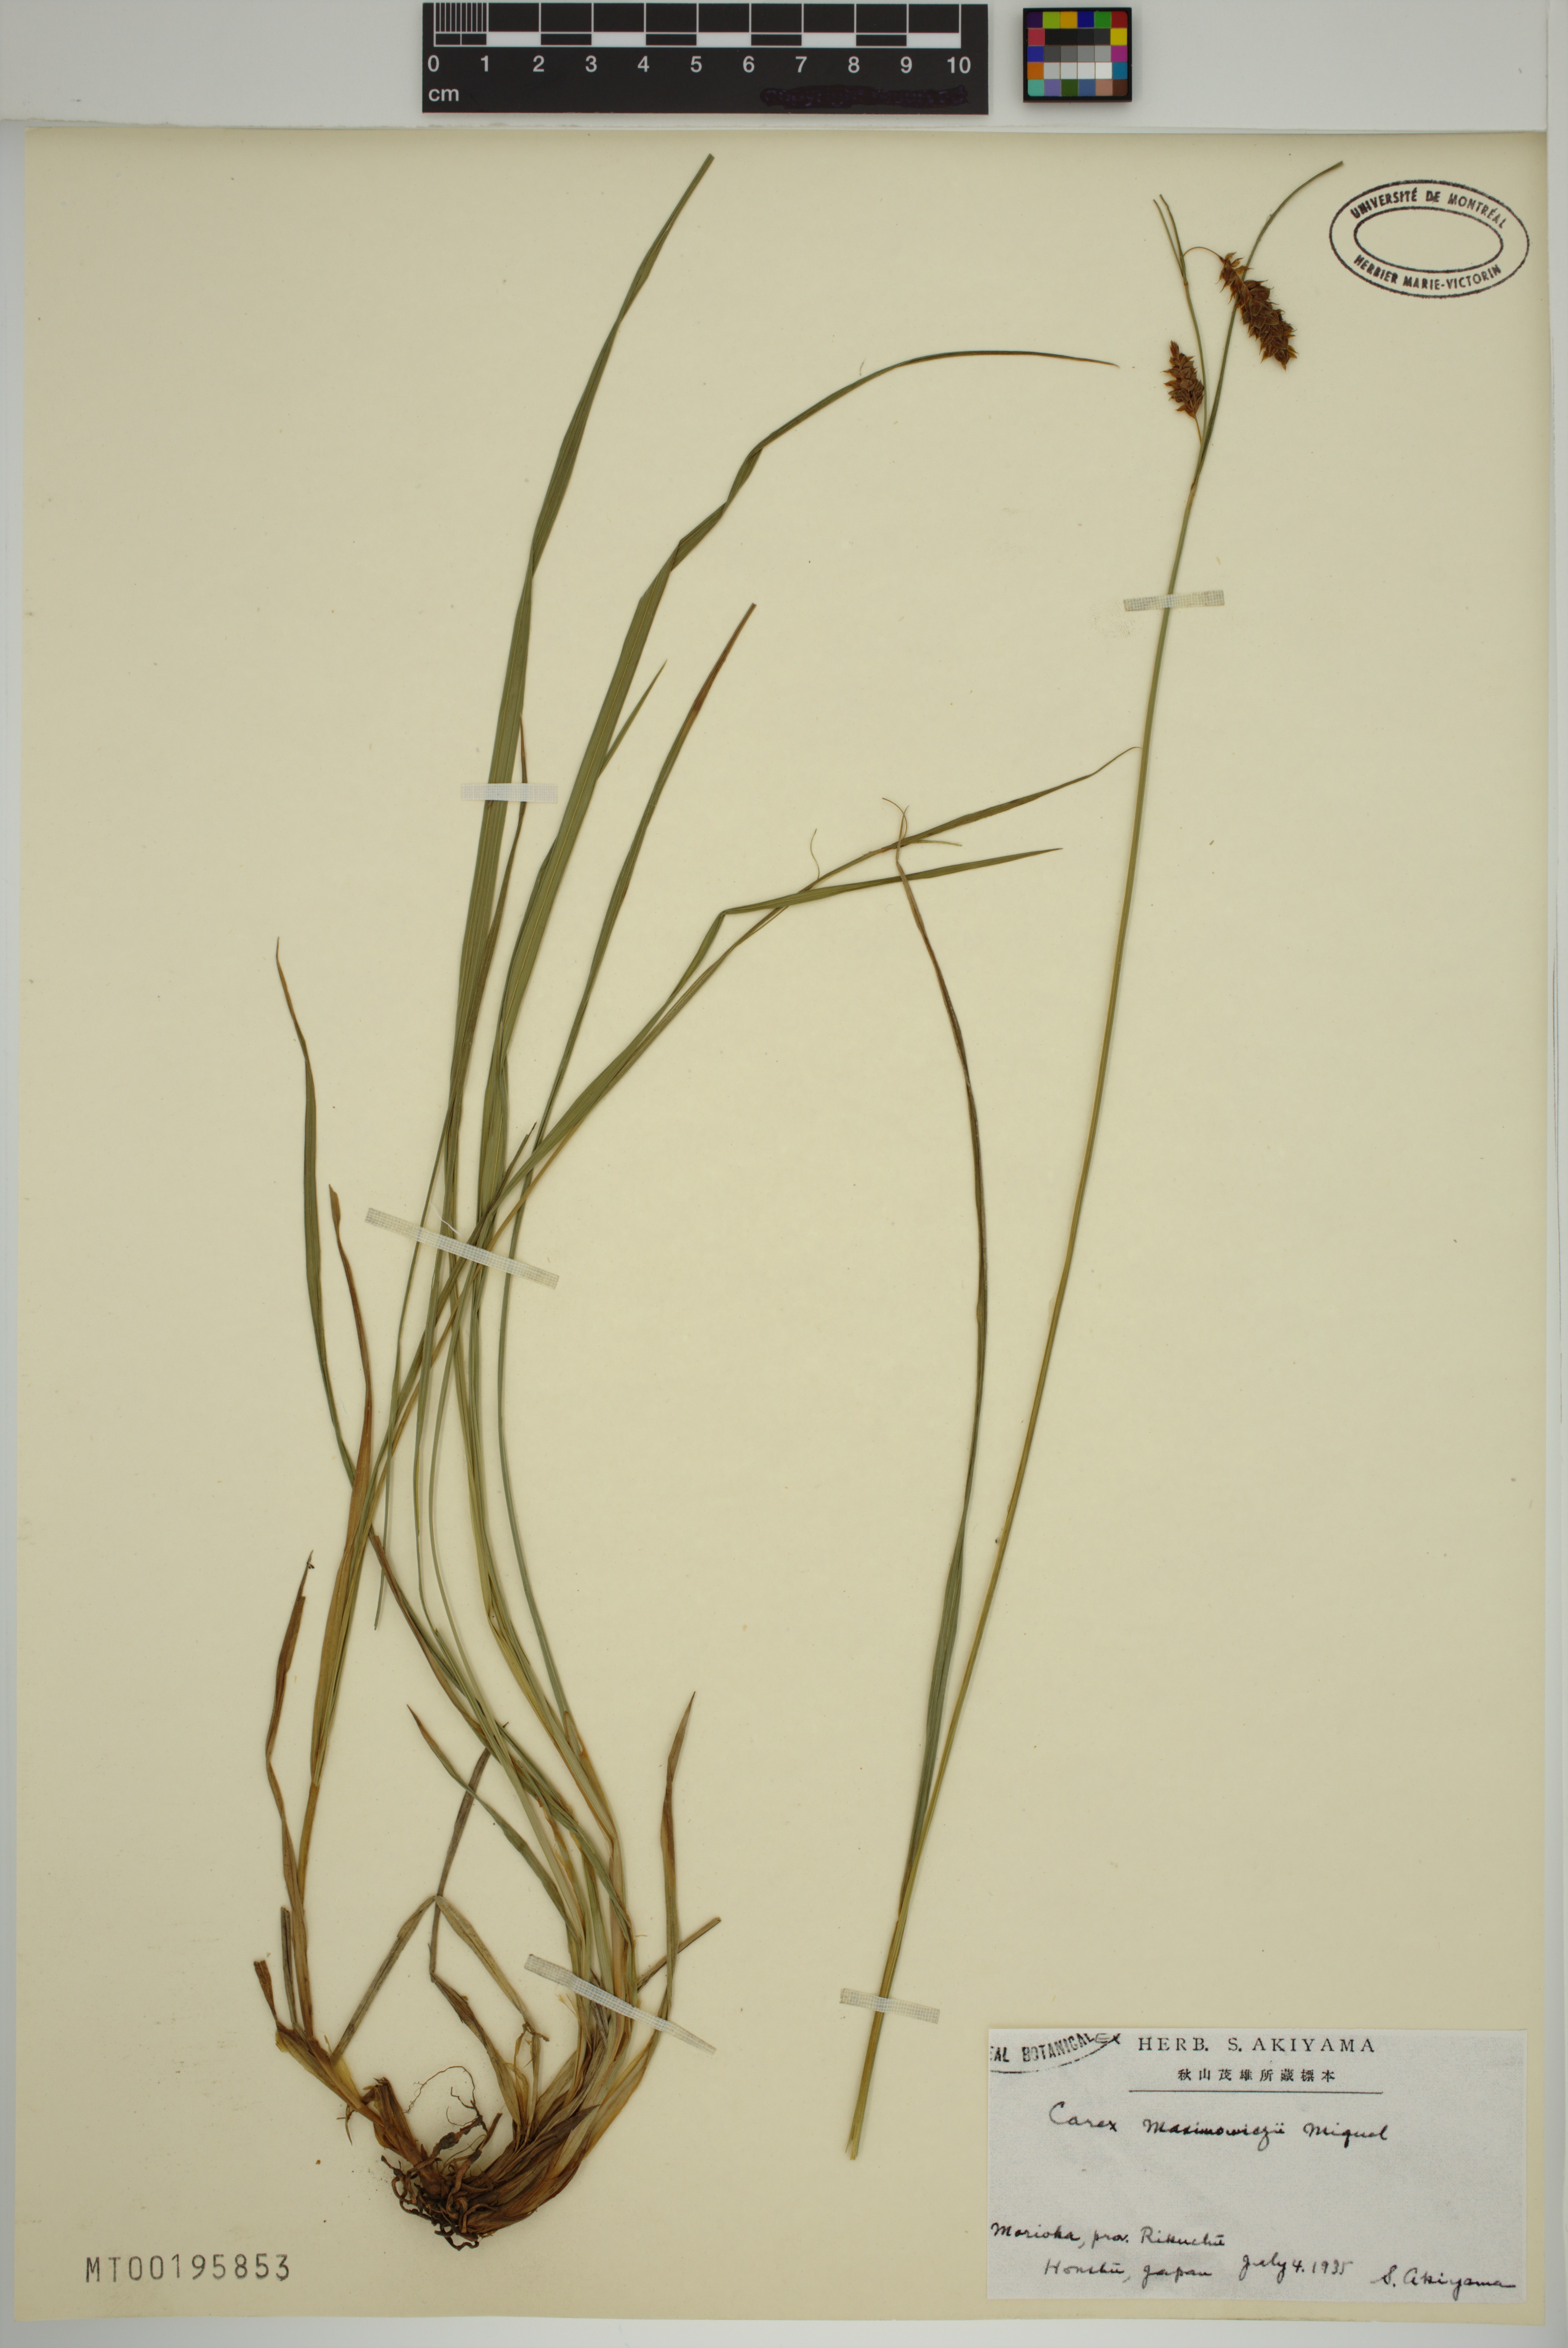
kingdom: Plantae
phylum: Tracheophyta
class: Liliopsida
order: Poales
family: Cyperaceae
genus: Carex
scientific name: Carex maximowiczii
